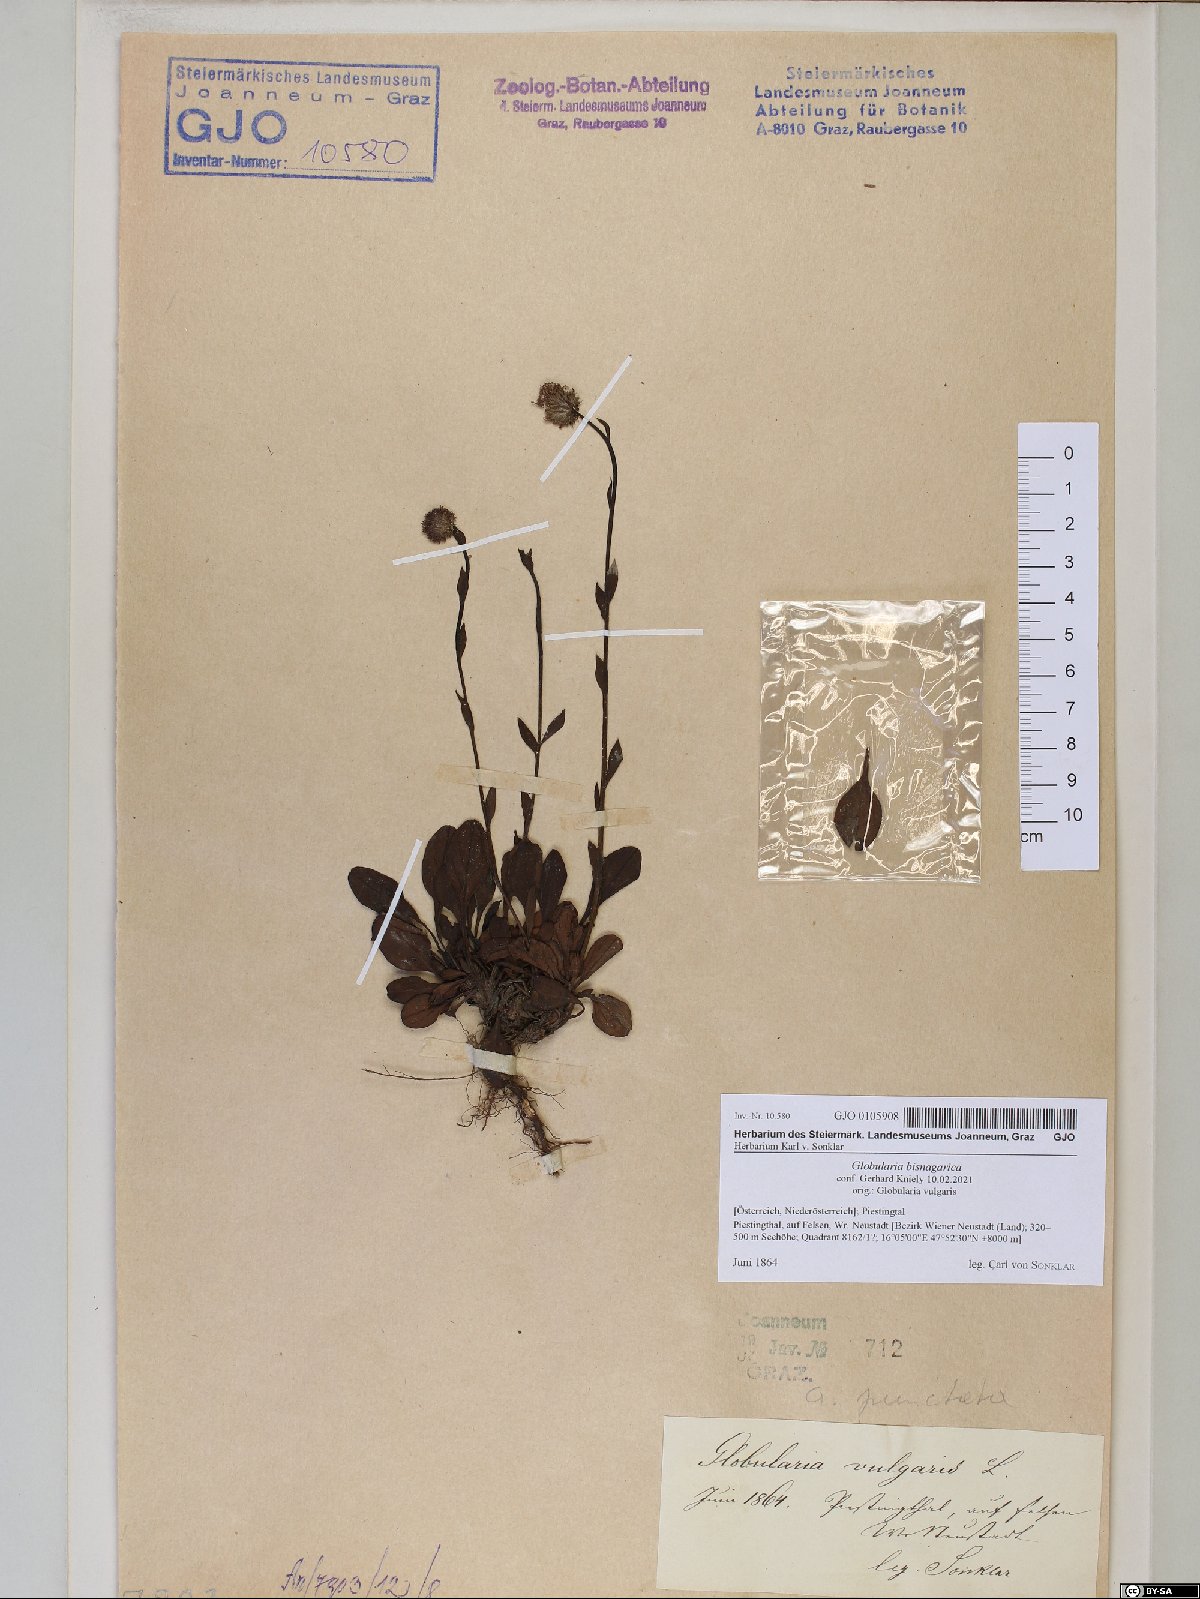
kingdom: Plantae
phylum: Tracheophyta
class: Magnoliopsida
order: Lamiales
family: Plantaginaceae
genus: Globularia
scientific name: Globularia bisnagarica
